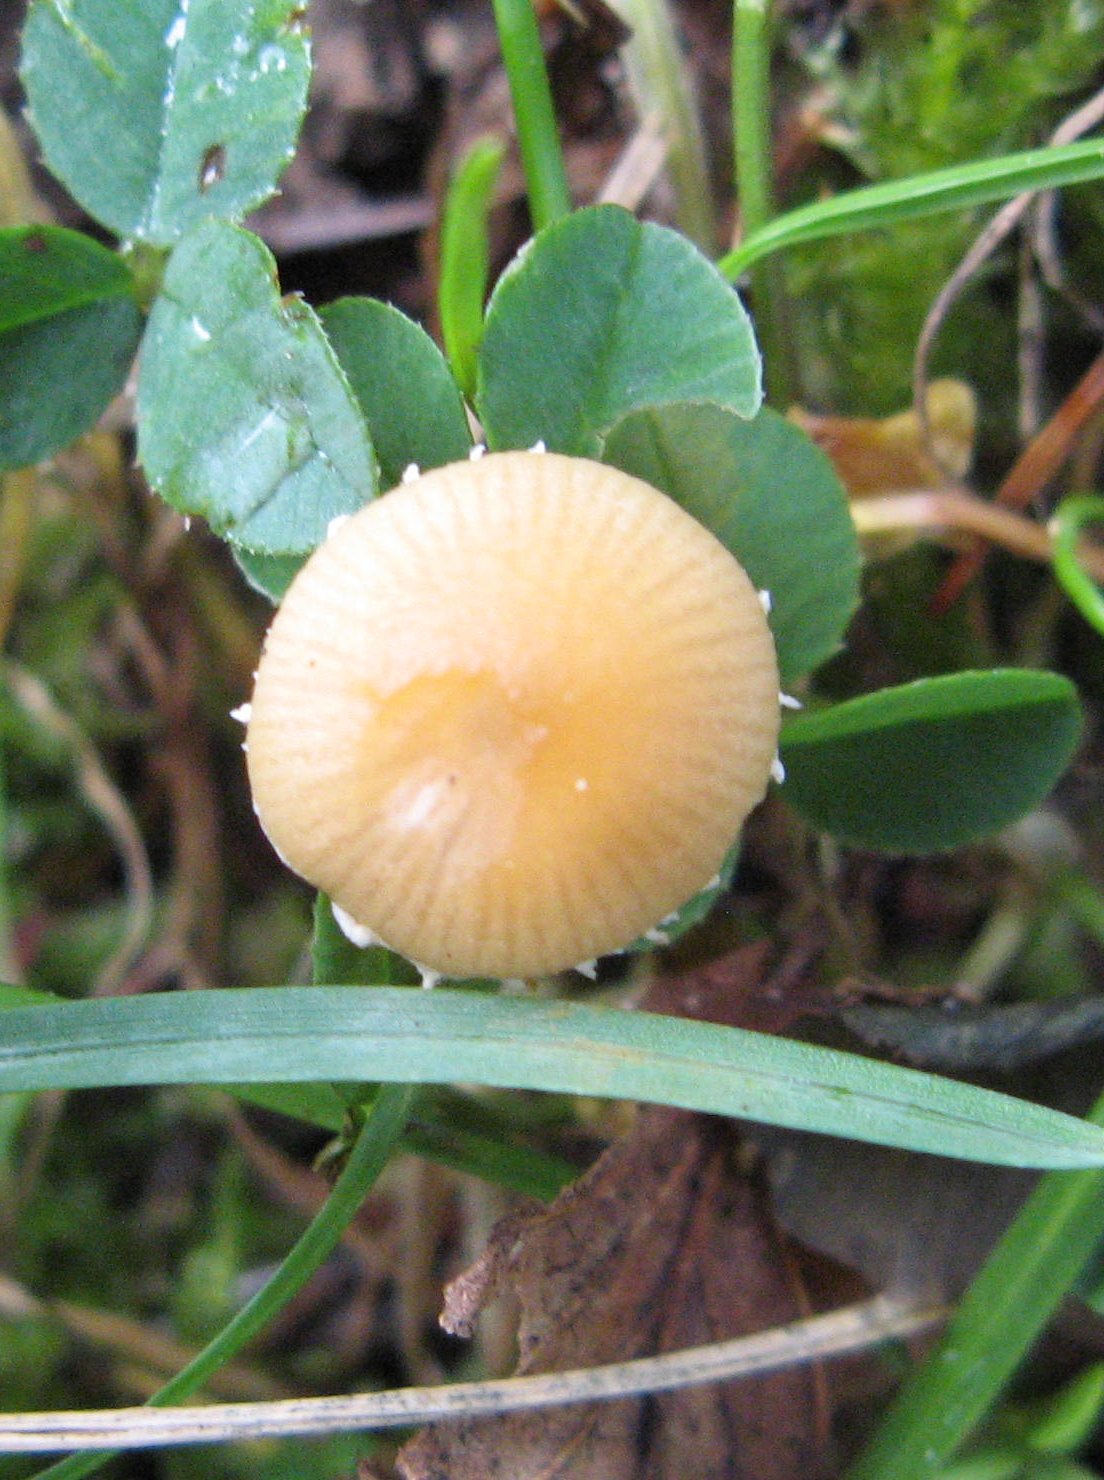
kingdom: Fungi
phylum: Basidiomycota
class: Agaricomycetes
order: Agaricales
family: Bolbitiaceae
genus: Conocybe
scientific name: Conocybe nemoralis
